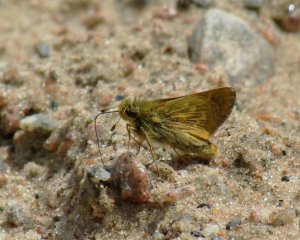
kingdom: Animalia
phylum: Arthropoda
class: Insecta
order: Lepidoptera
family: Hesperiidae
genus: Hesperia
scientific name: Hesperia sassacus
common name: Sassacus Skipper
